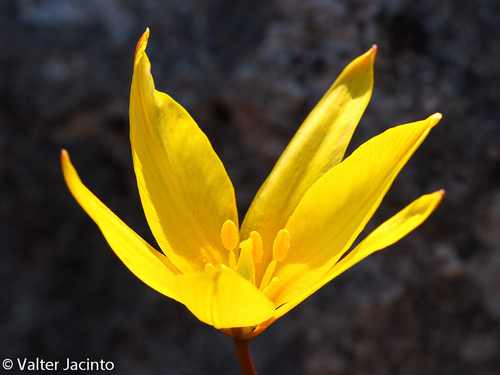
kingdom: Plantae
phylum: Tracheophyta
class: Liliopsida
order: Liliales
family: Liliaceae
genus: Tulipa
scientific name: Tulipa sylvestris
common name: Wild tulip
